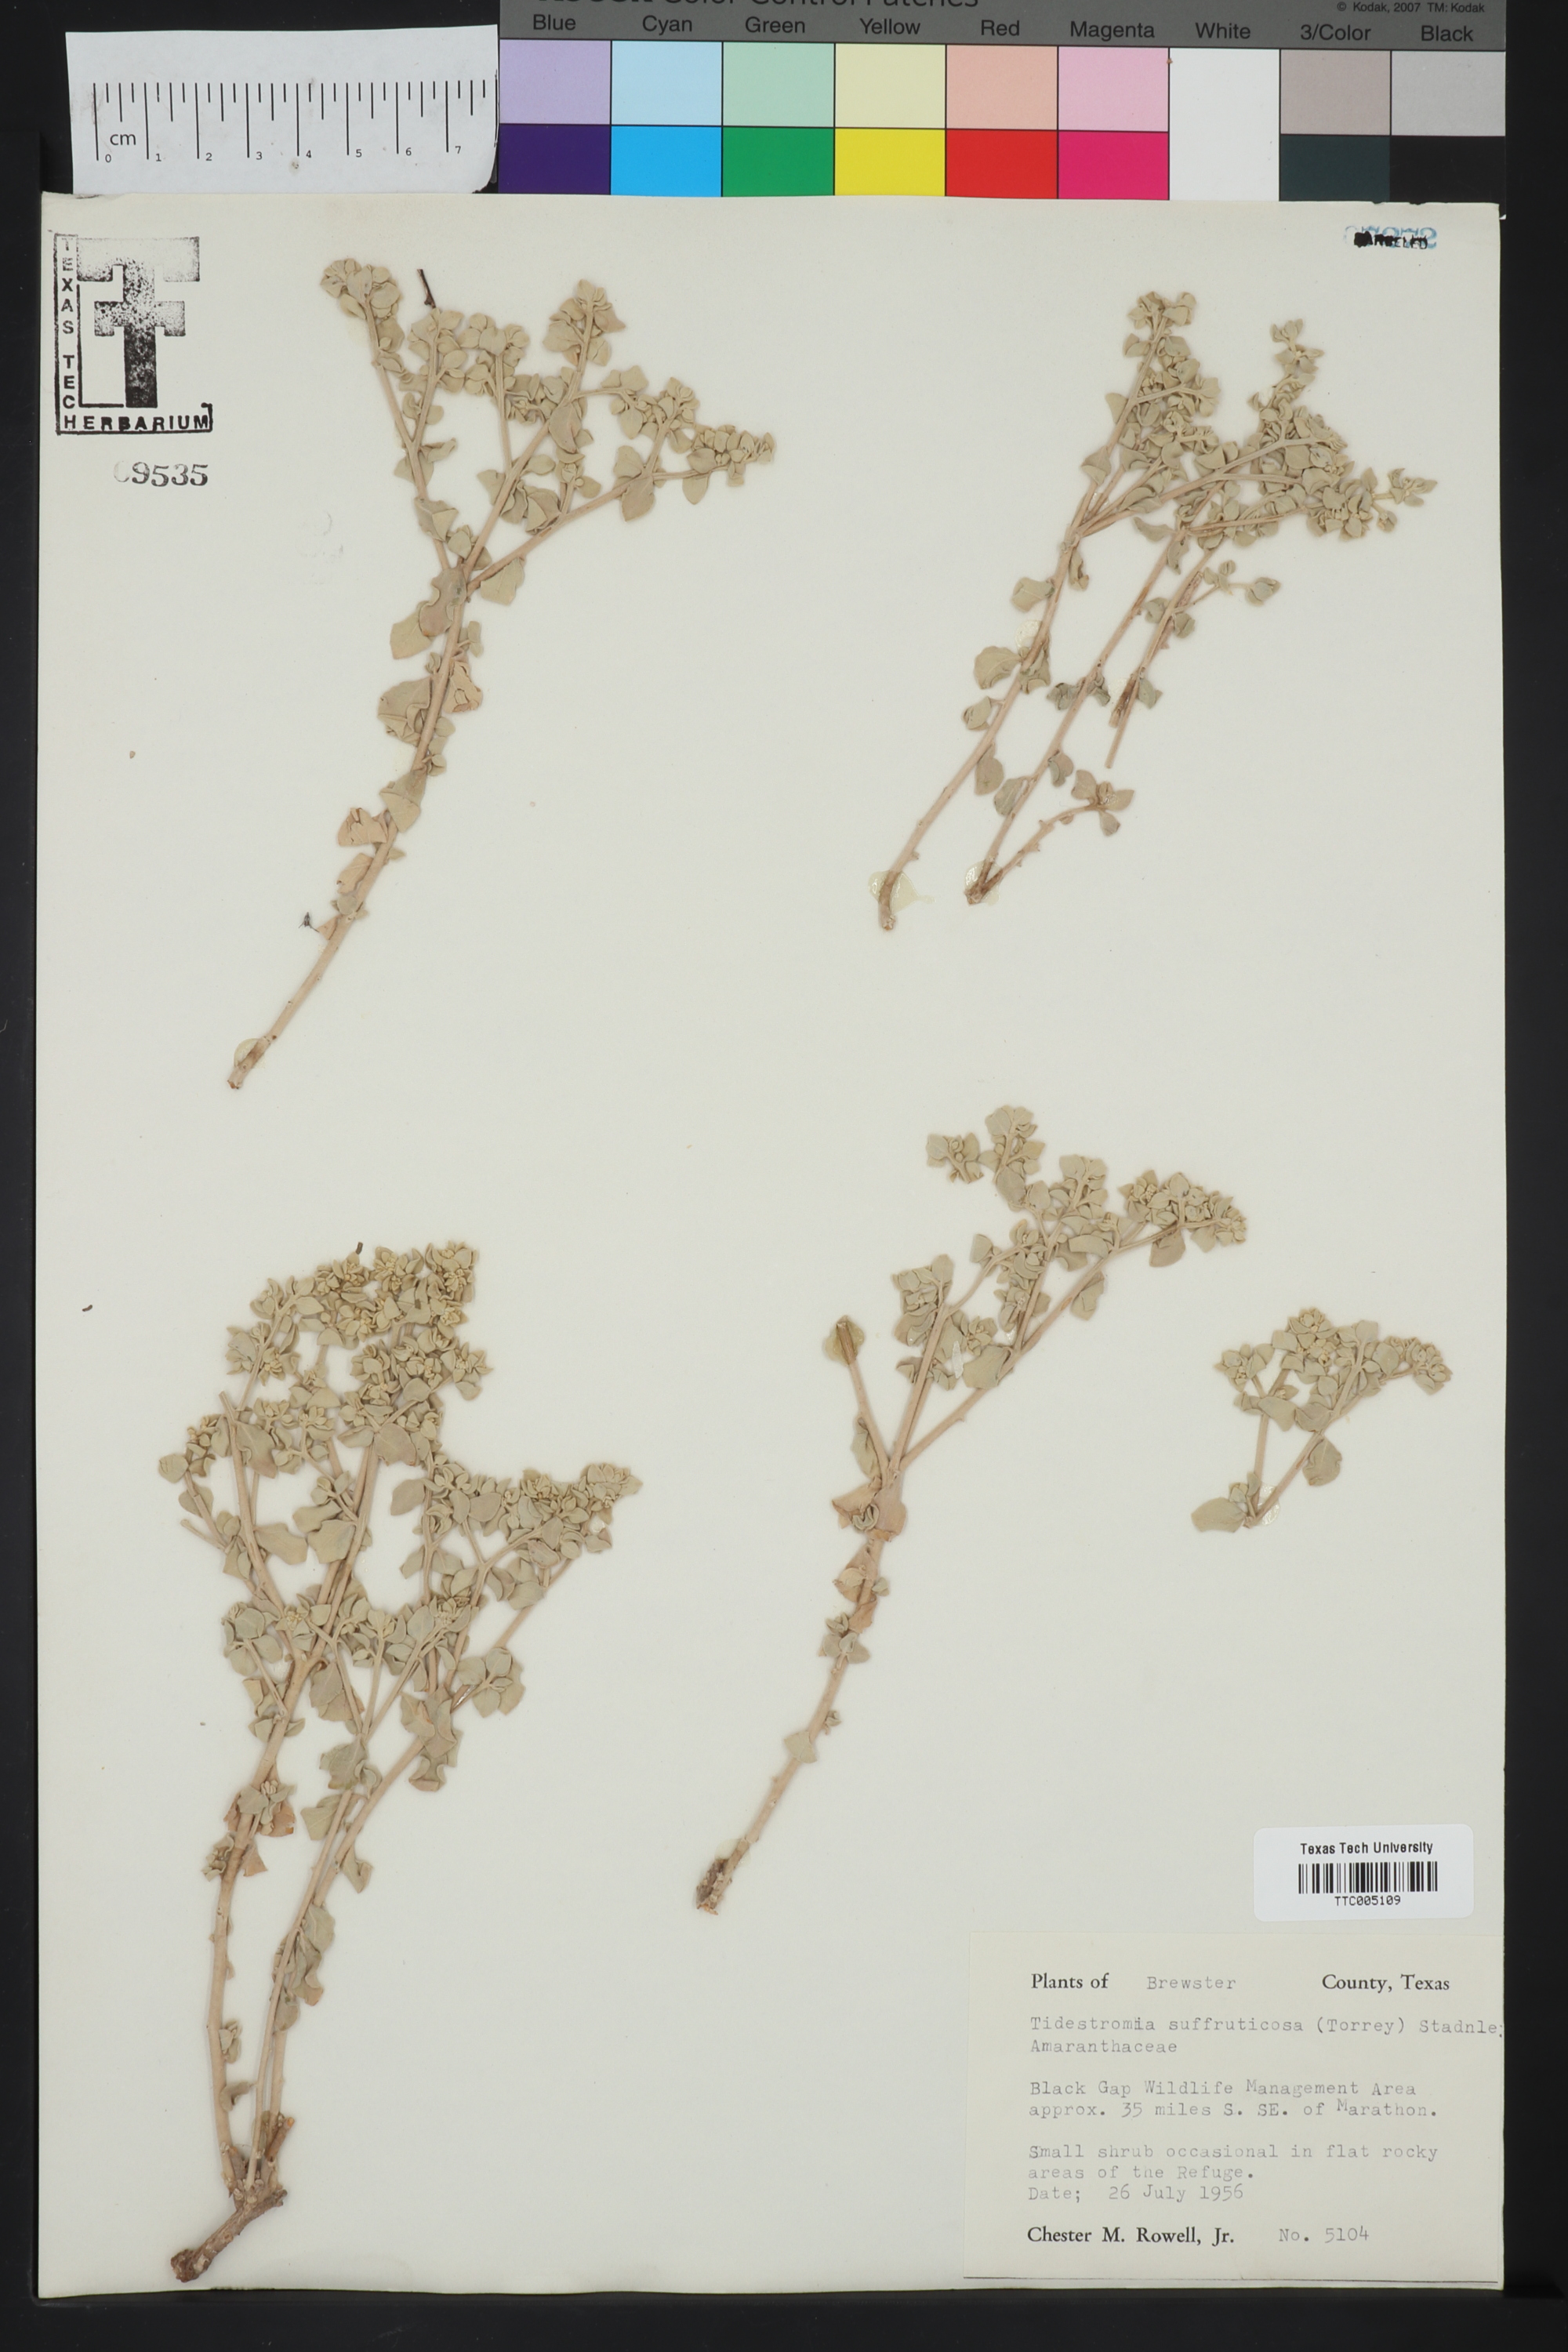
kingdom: Plantae
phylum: Tracheophyta
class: Magnoliopsida
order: Caryophyllales
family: Amaranthaceae
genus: Tidestromia
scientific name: Tidestromia suffruticosa
